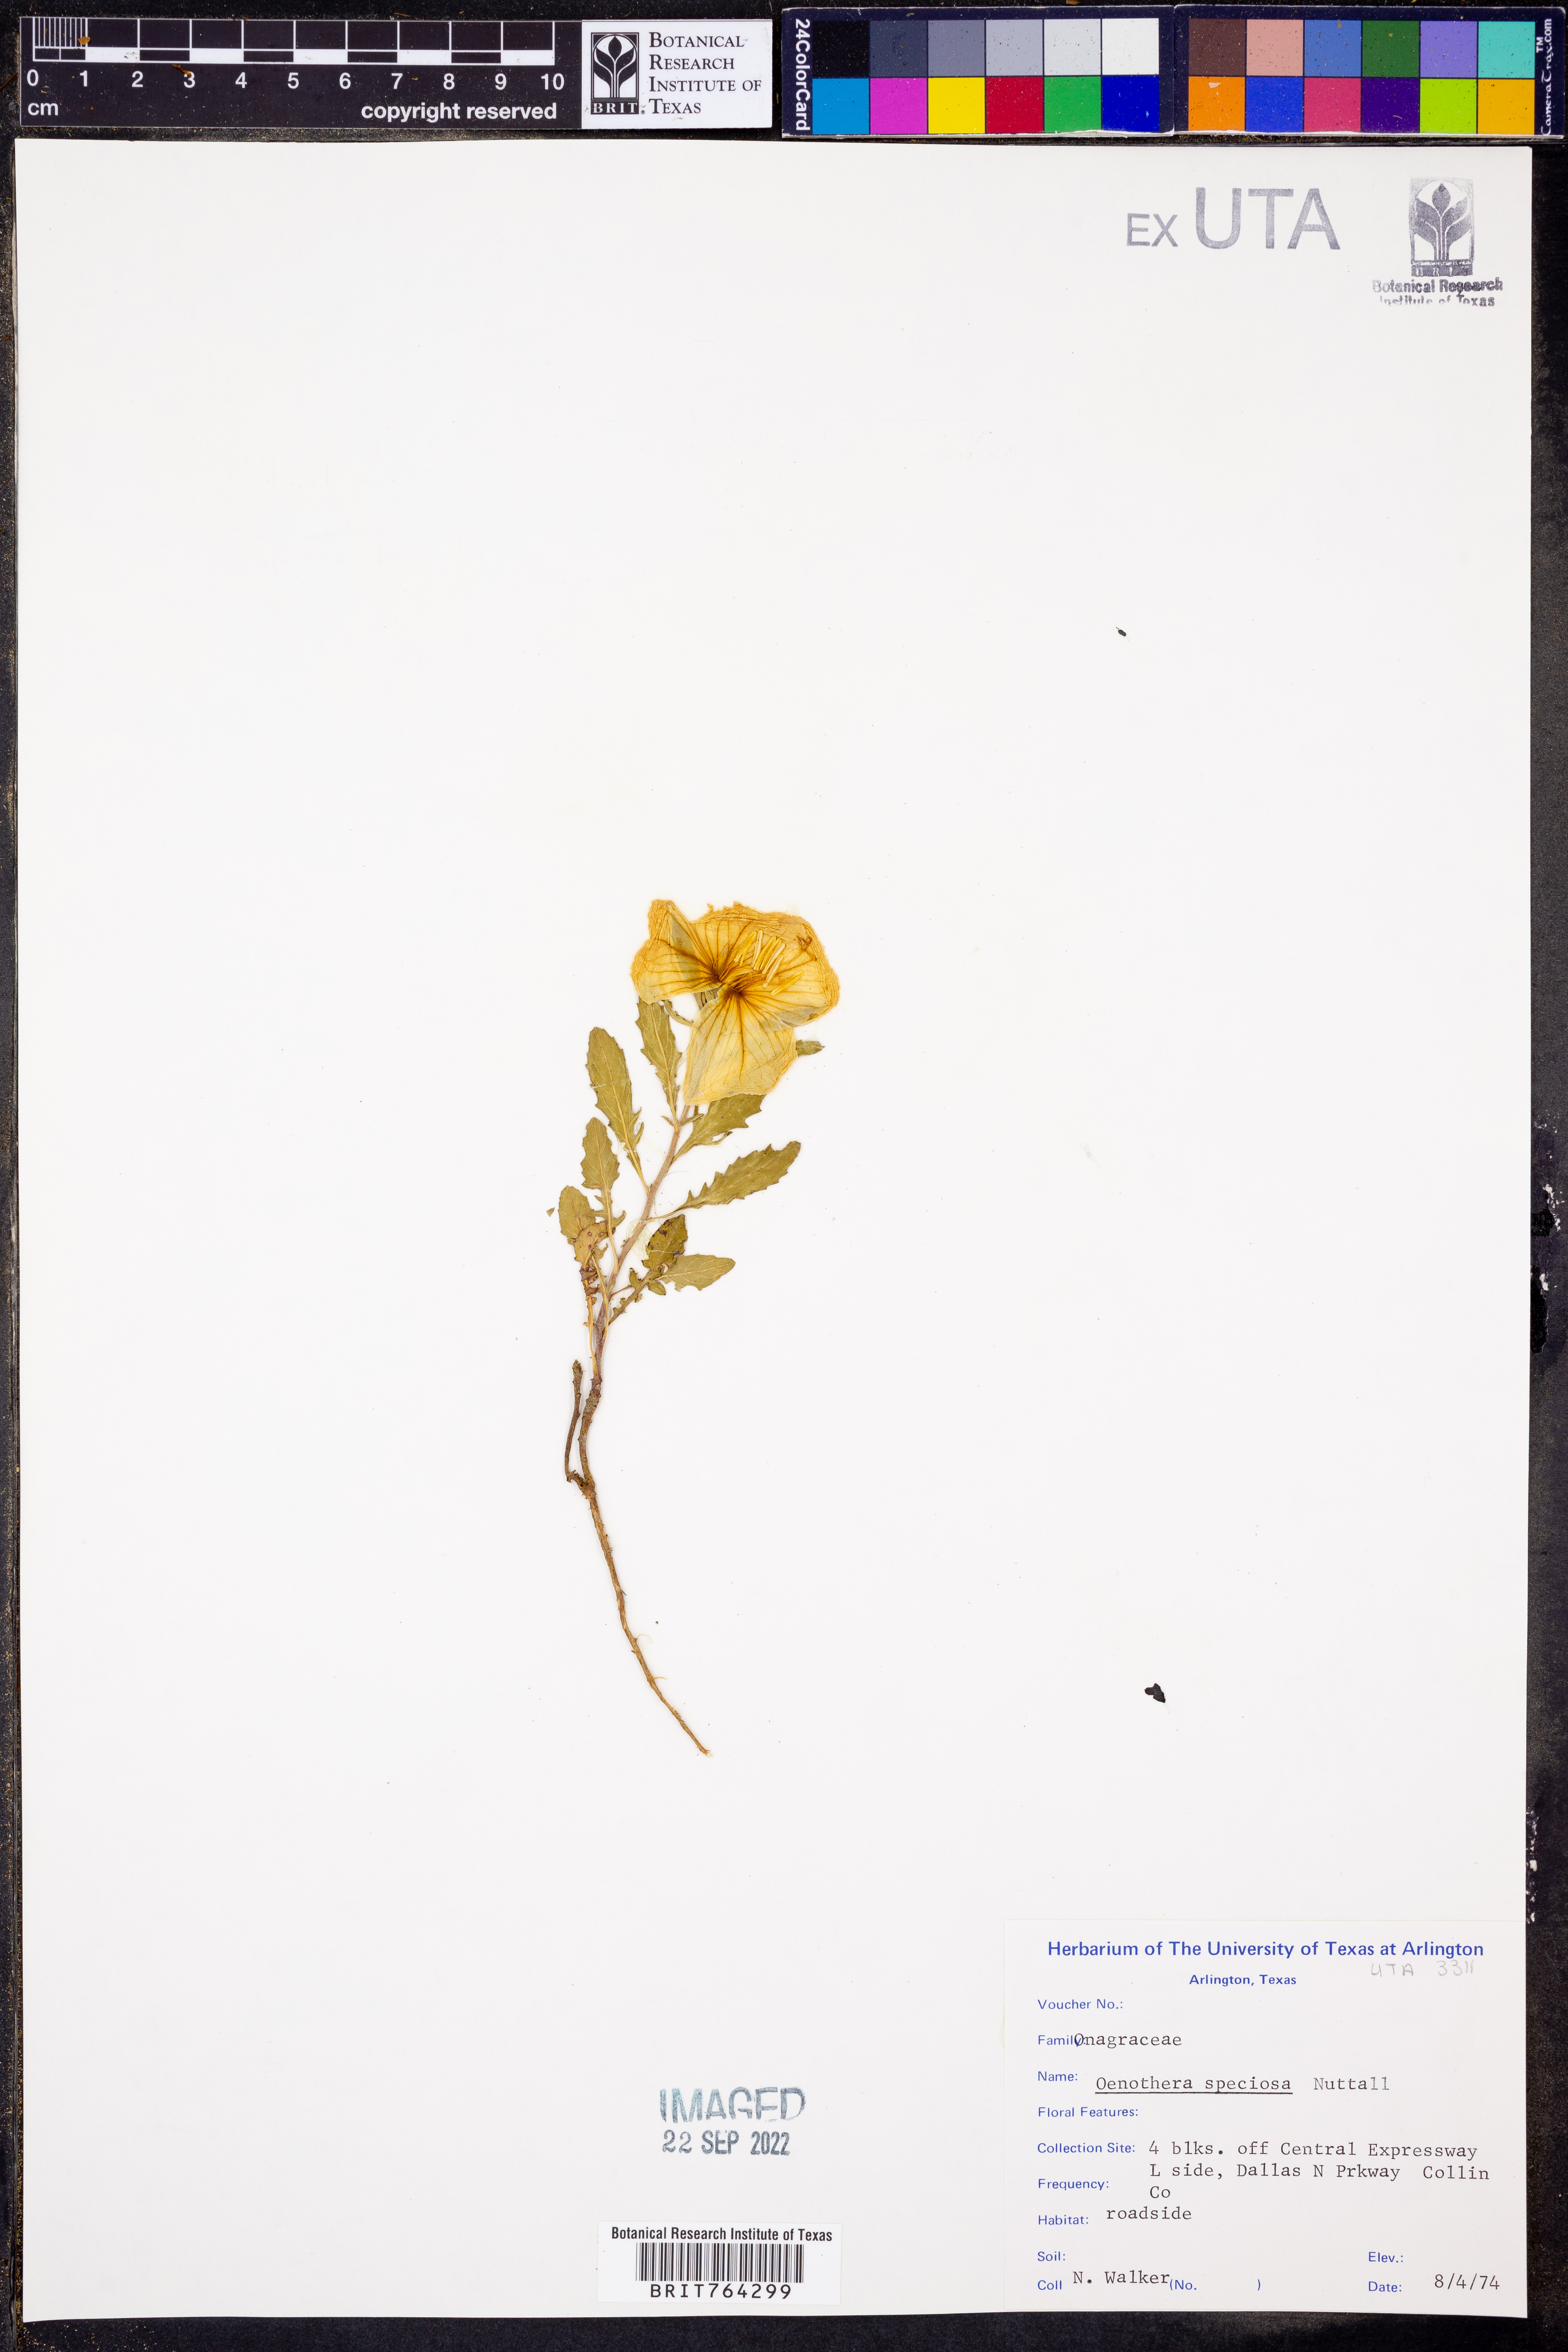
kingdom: Plantae
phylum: Tracheophyta
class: Magnoliopsida
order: Myrtales
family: Onagraceae
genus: Oenothera
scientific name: Oenothera speciosa
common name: White evening-primrose
